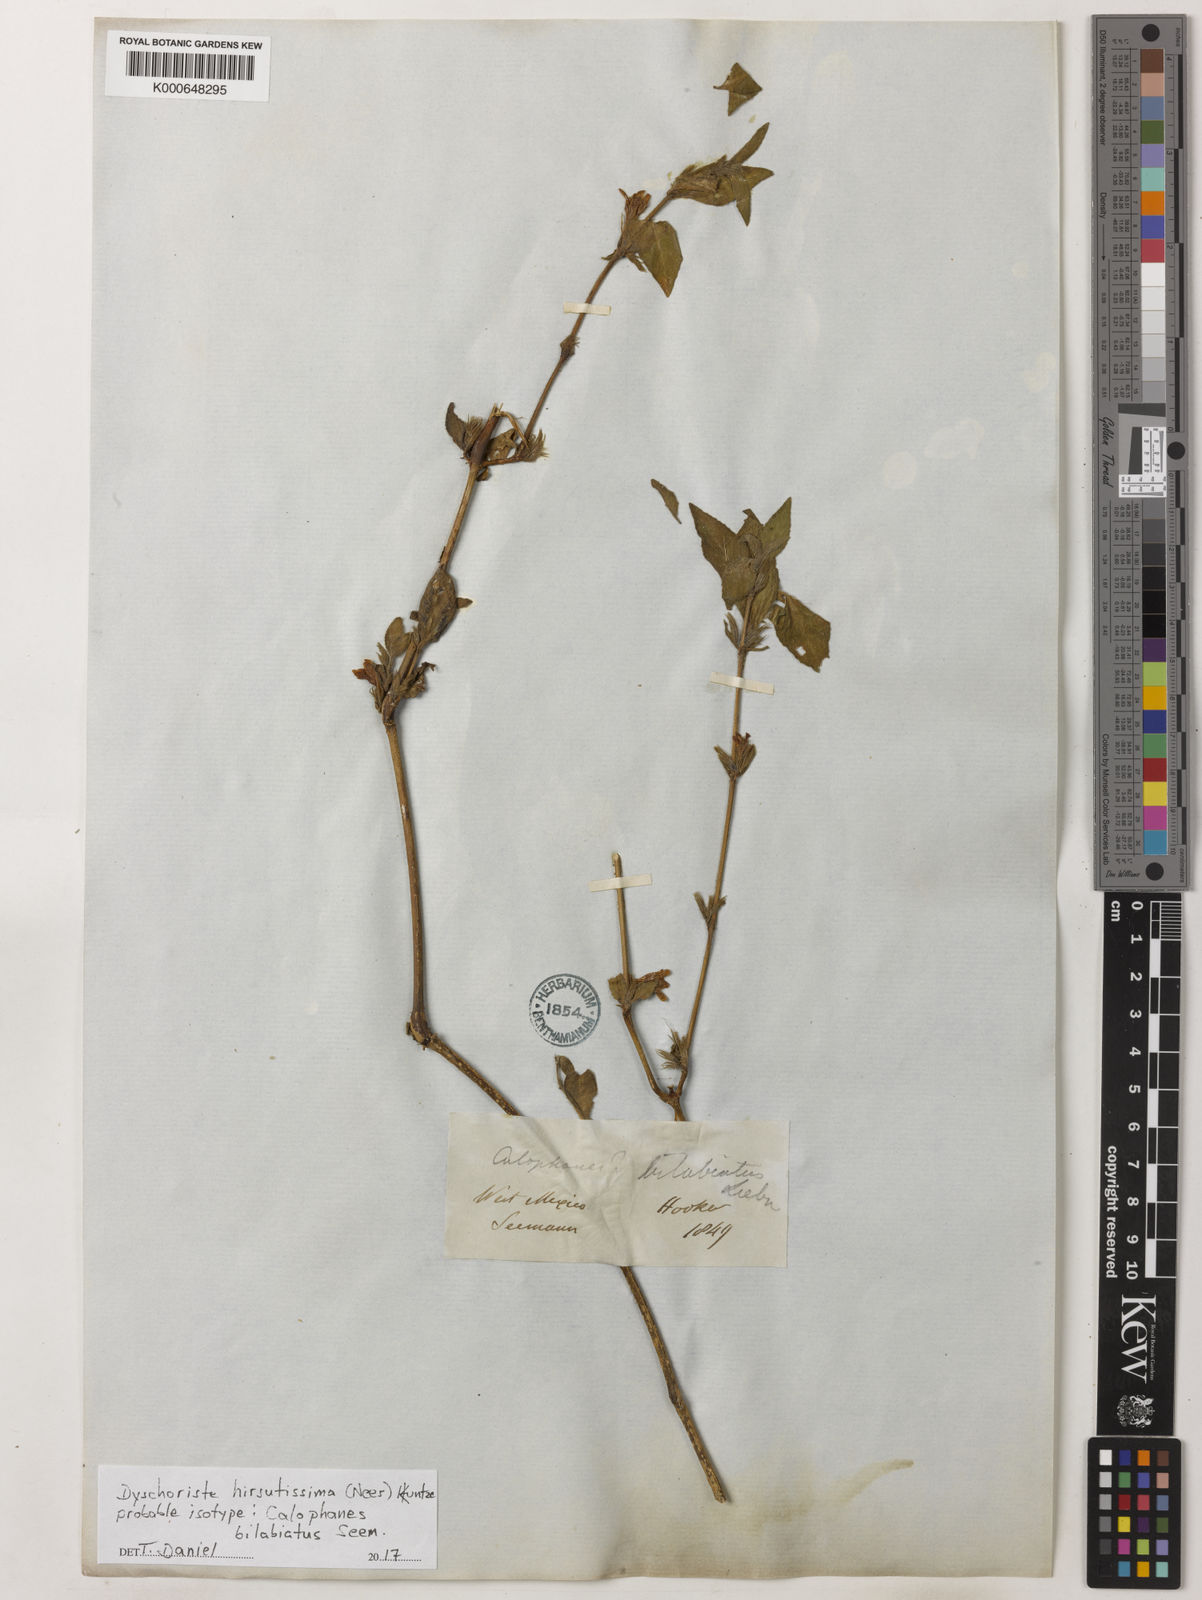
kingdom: Plantae
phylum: Tracheophyta
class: Magnoliopsida
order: Lamiales
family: Acanthaceae
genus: Dyschoriste
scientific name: Dyschoriste hirsutissima
